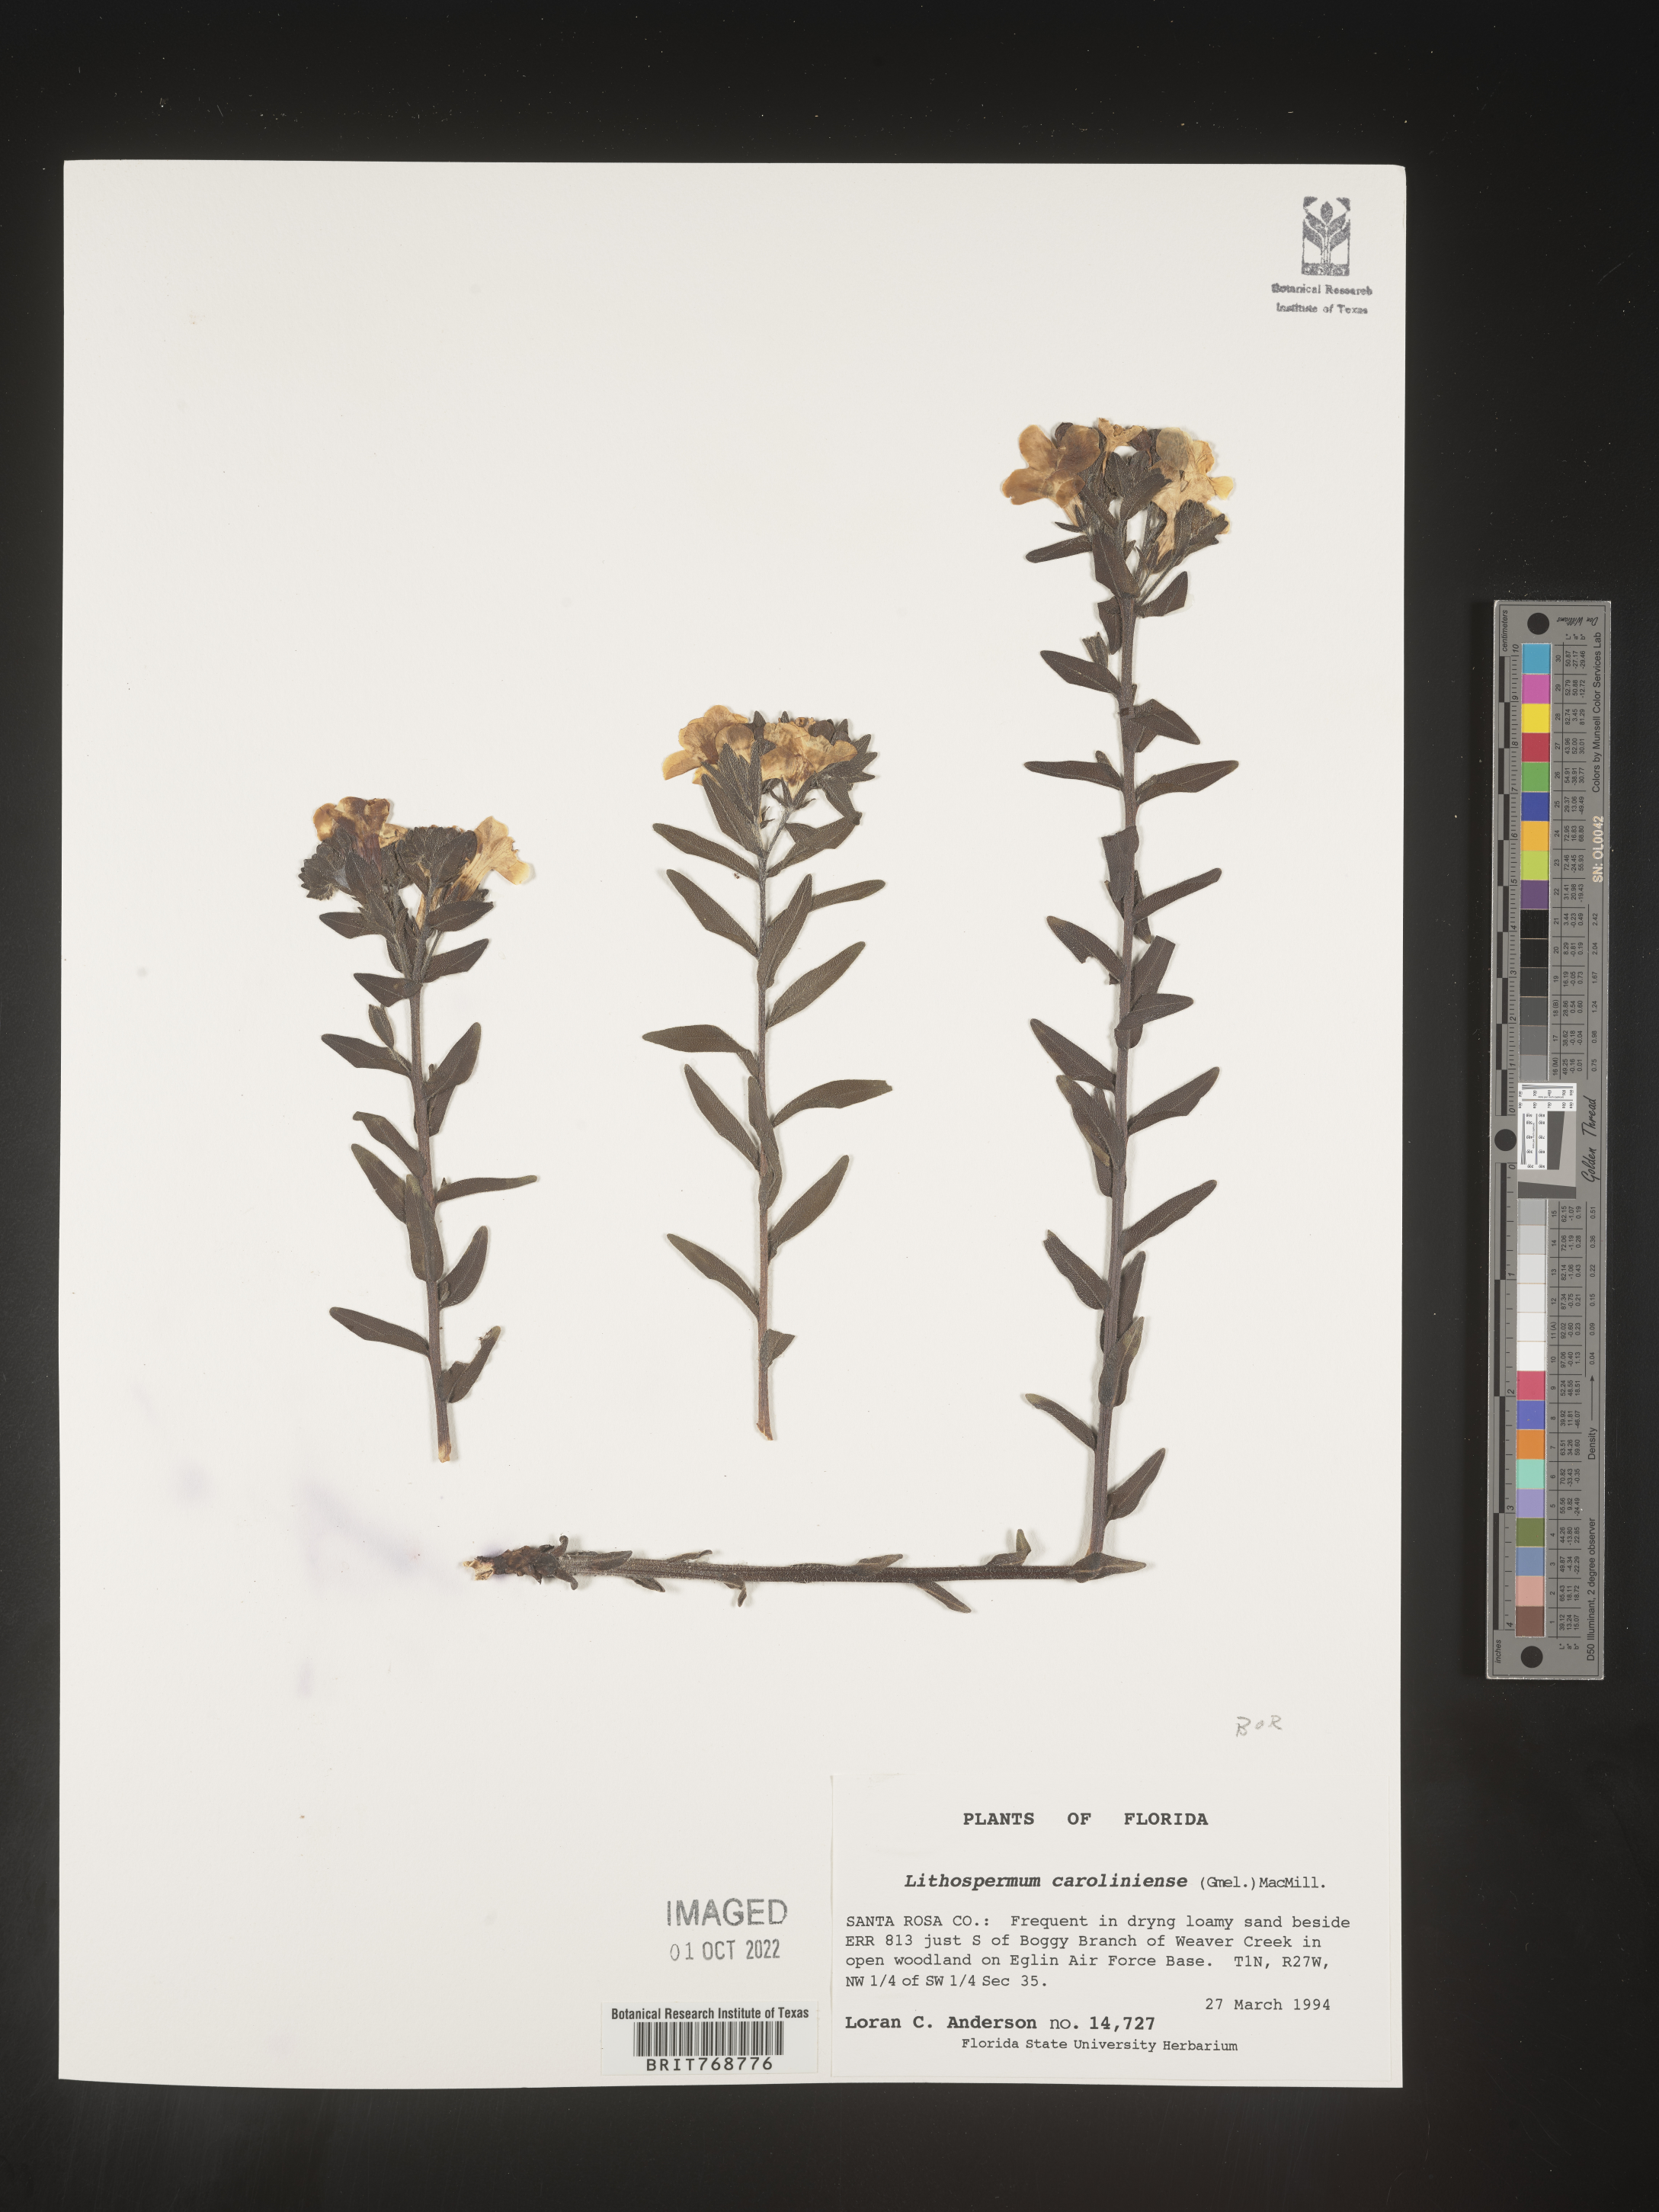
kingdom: Plantae
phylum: Tracheophyta
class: Magnoliopsida
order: Boraginales
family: Boraginaceae
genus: Lithospermum
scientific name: Lithospermum caroliniense
